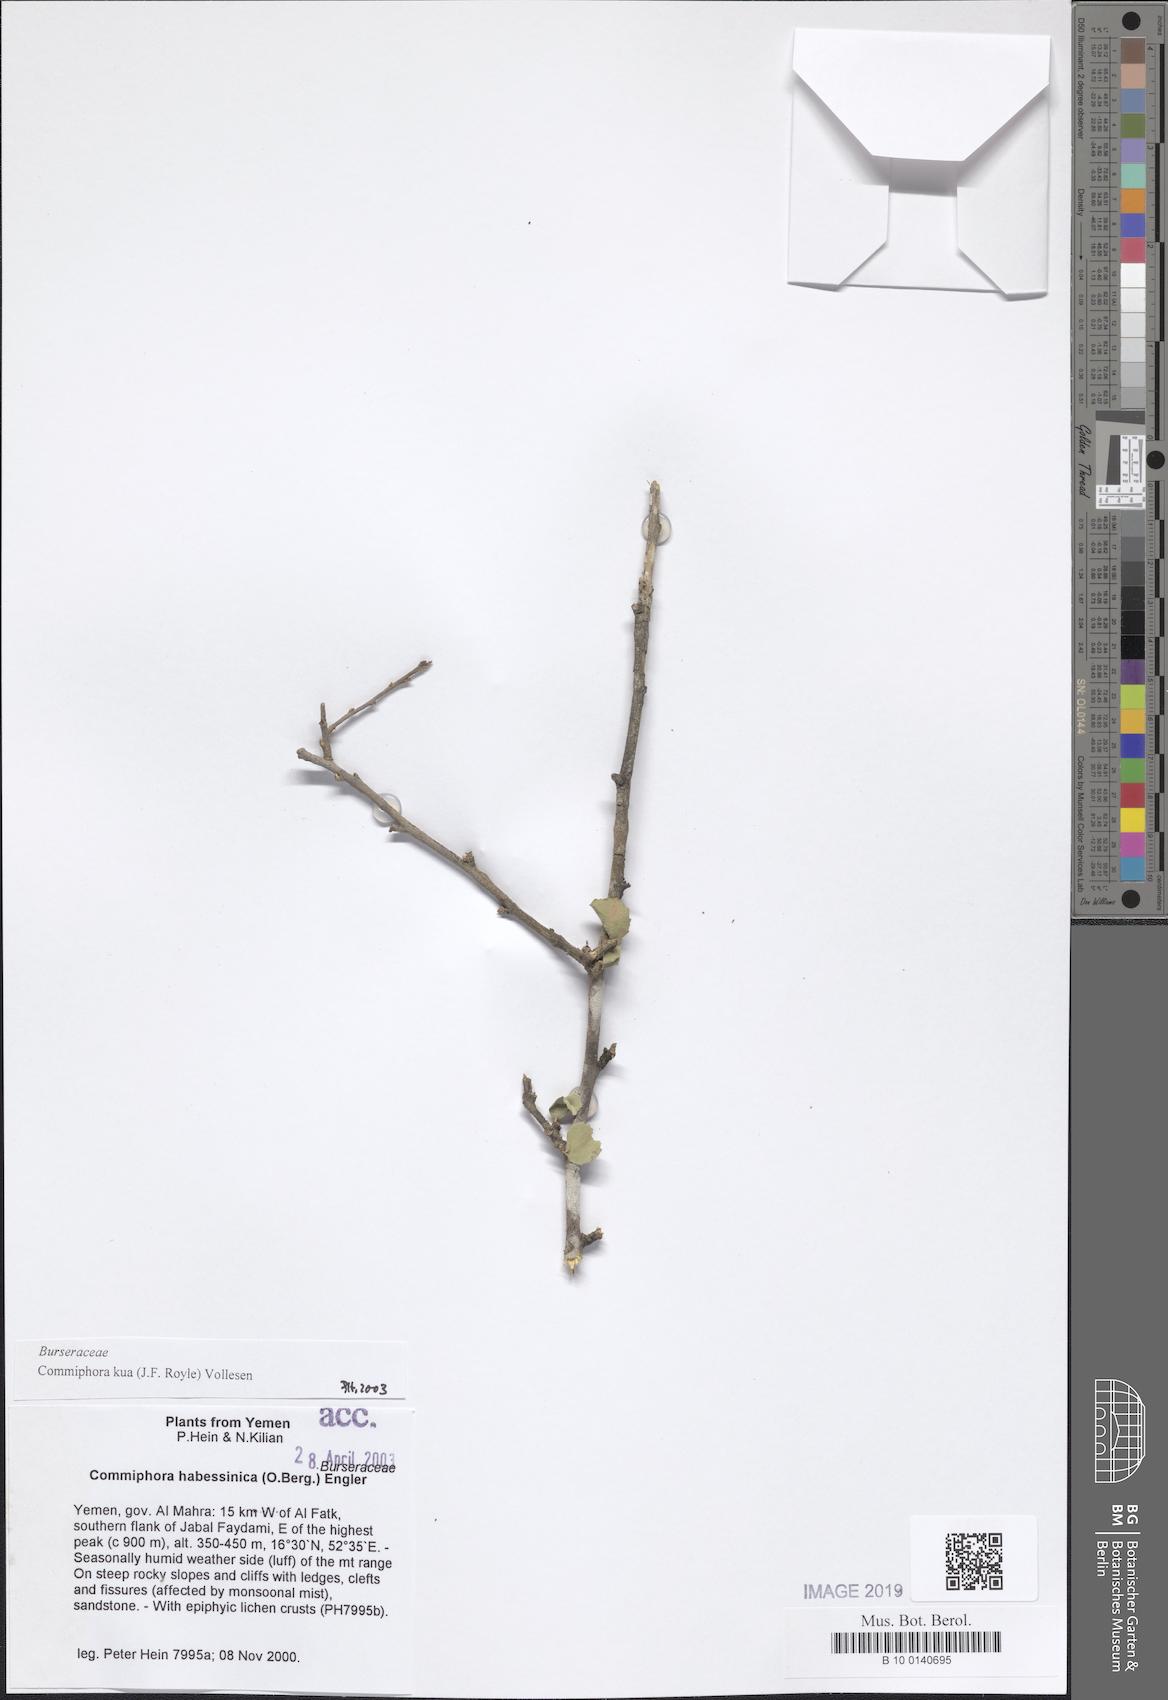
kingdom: Plantae
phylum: Tracheophyta
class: Magnoliopsida
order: Sapindales
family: Burseraceae
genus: Commiphora
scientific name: Commiphora kua
